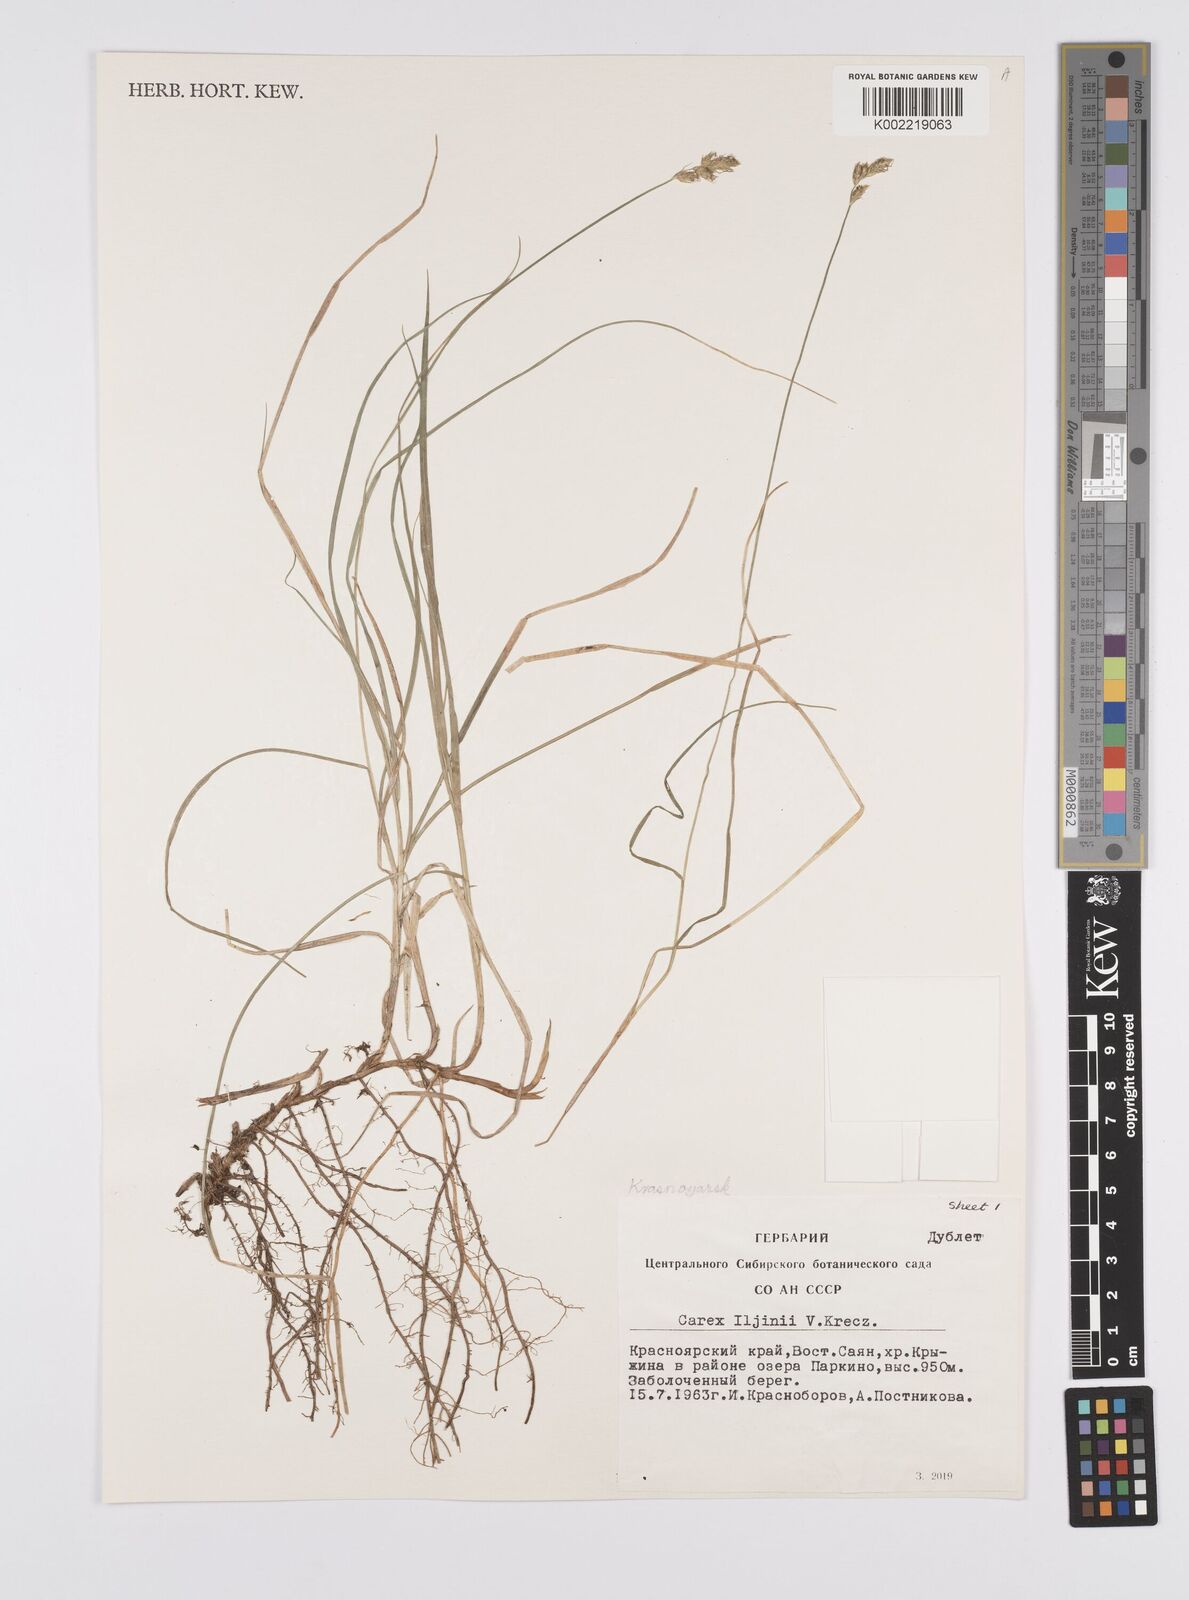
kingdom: Plantae
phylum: Tracheophyta
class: Liliopsida
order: Poales
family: Cyperaceae
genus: Carex
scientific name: Carex iljinii
